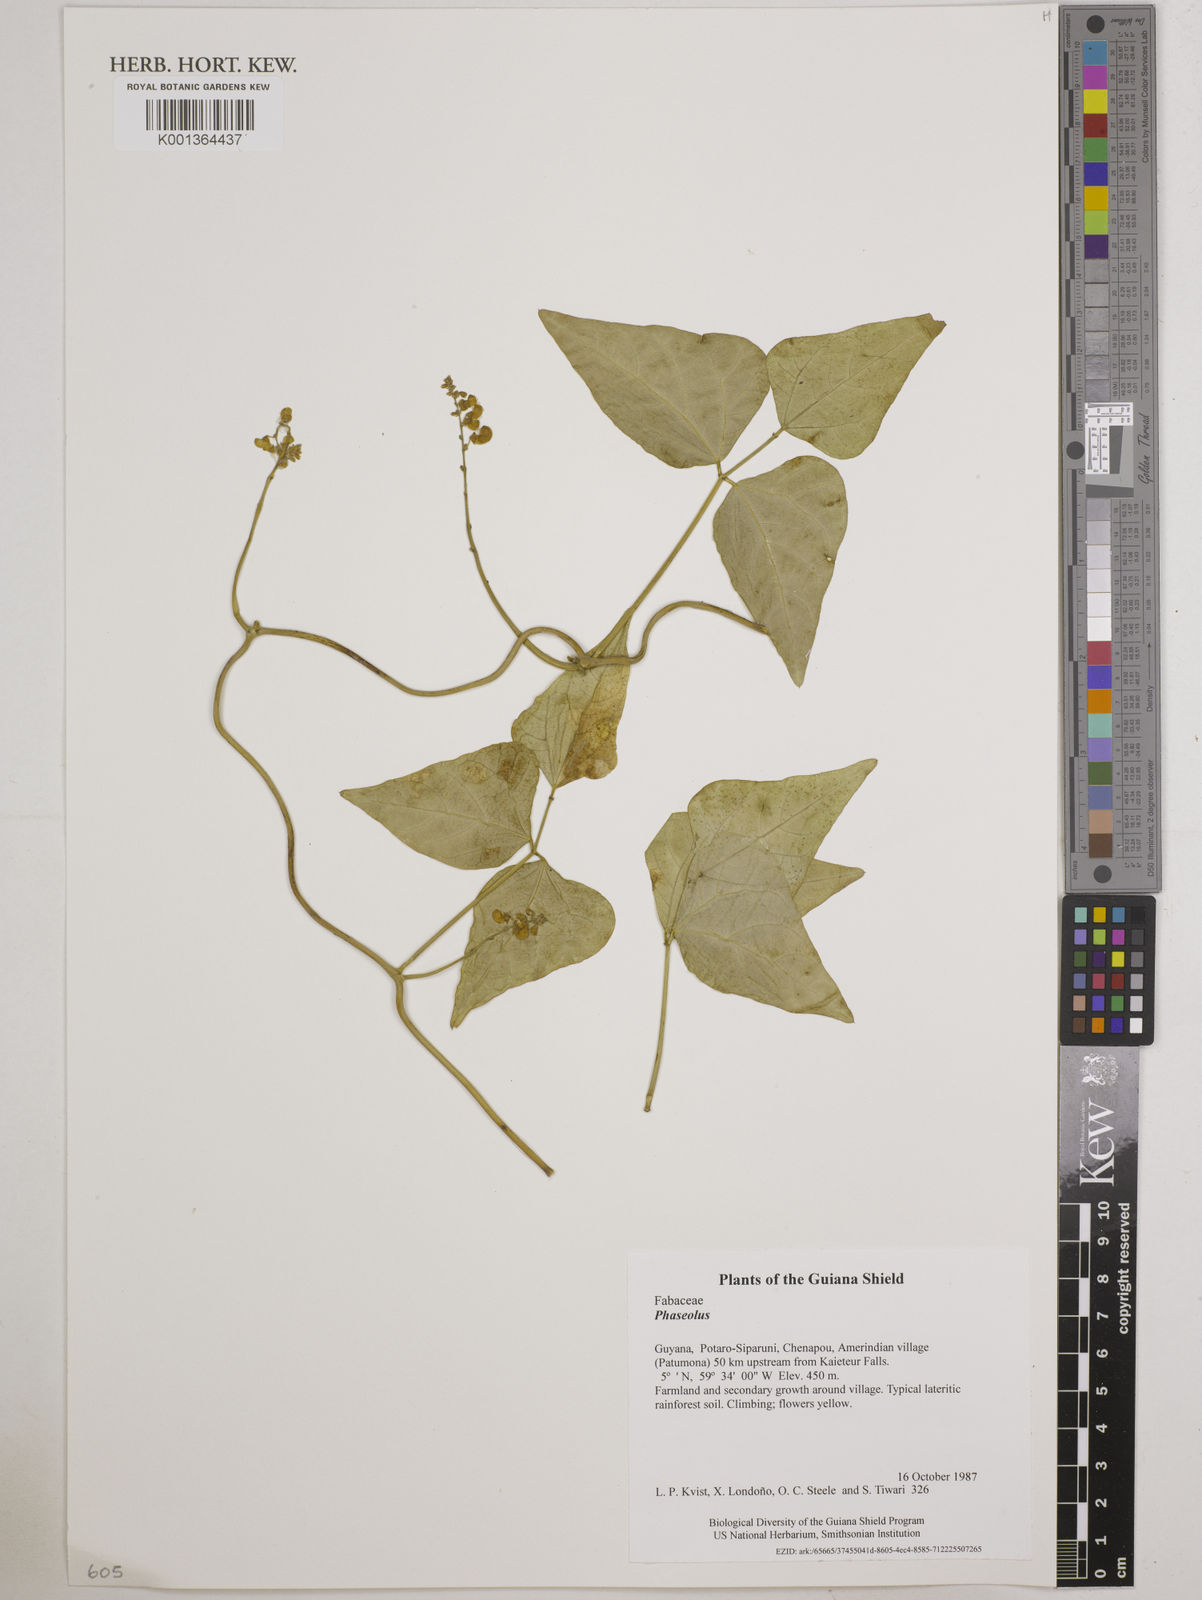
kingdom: Plantae
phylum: Tracheophyta
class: Magnoliopsida
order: Fabales
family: Fabaceae
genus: Phaseolus
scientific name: Phaseolus lunatus
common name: Sieva bean
